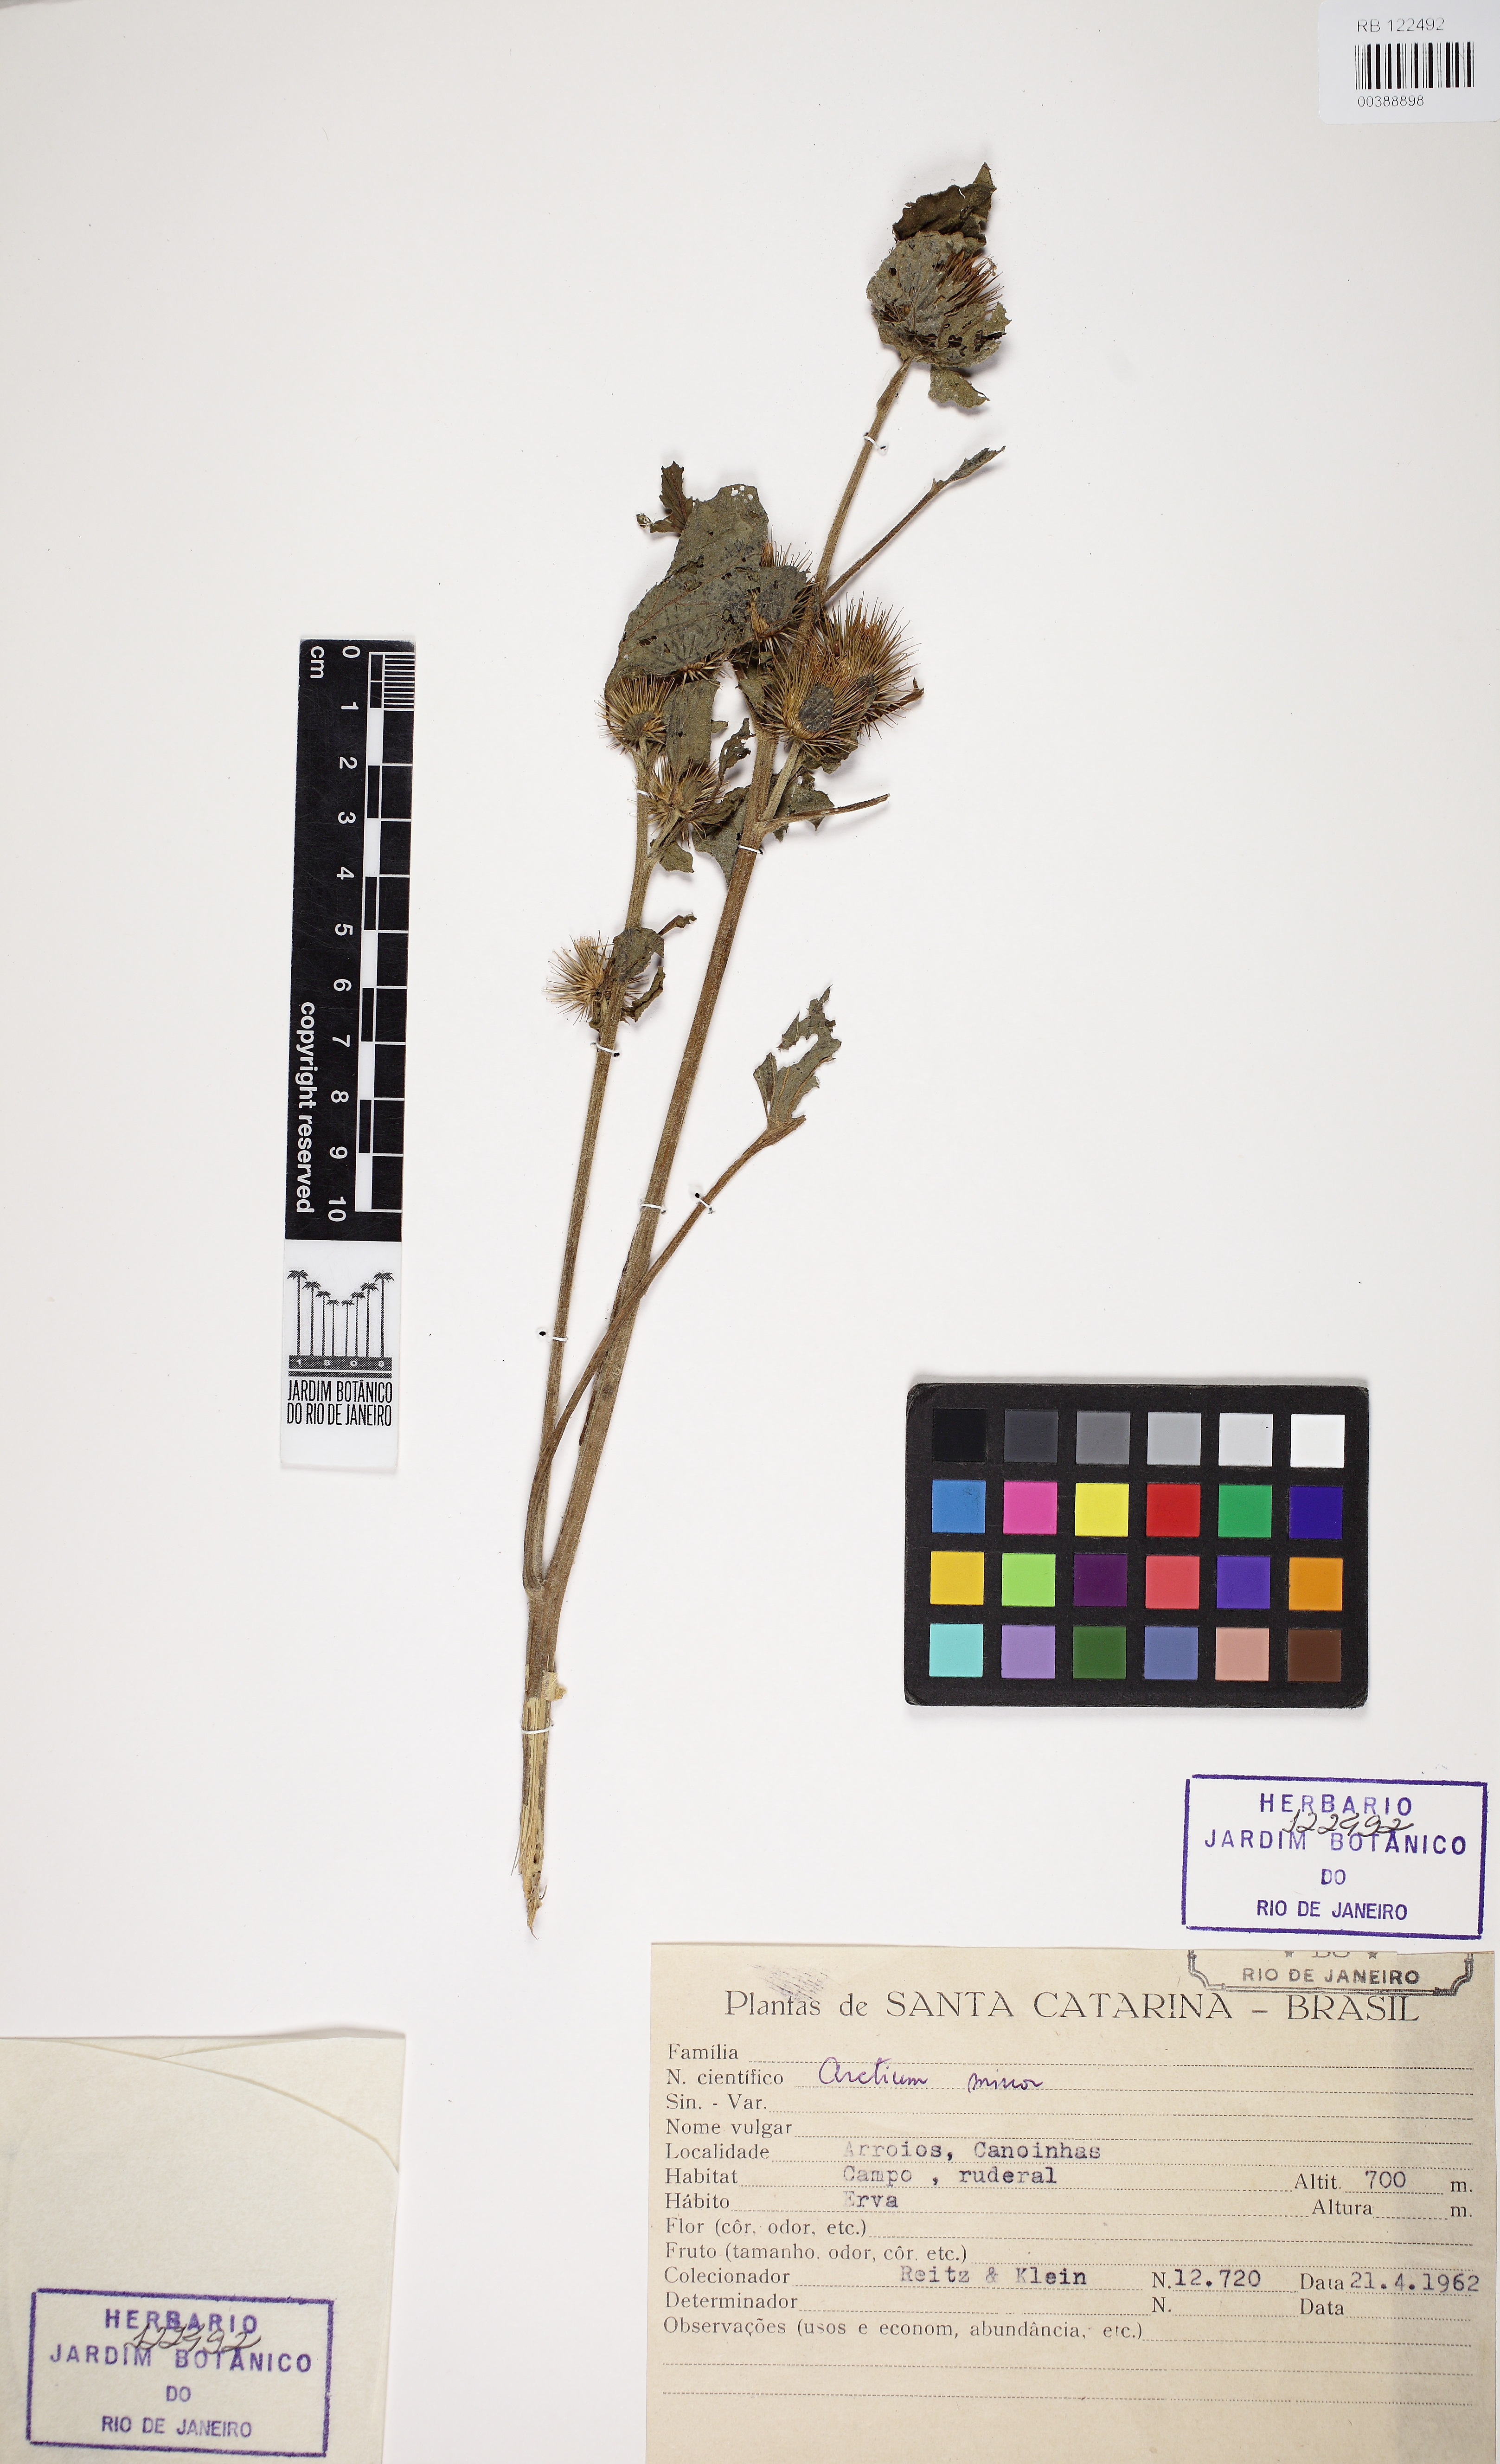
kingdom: Plantae
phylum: Tracheophyta
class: Magnoliopsida
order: Asterales
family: Asteraceae
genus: Arctium
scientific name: Arctium minus
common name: Lesser burdock
